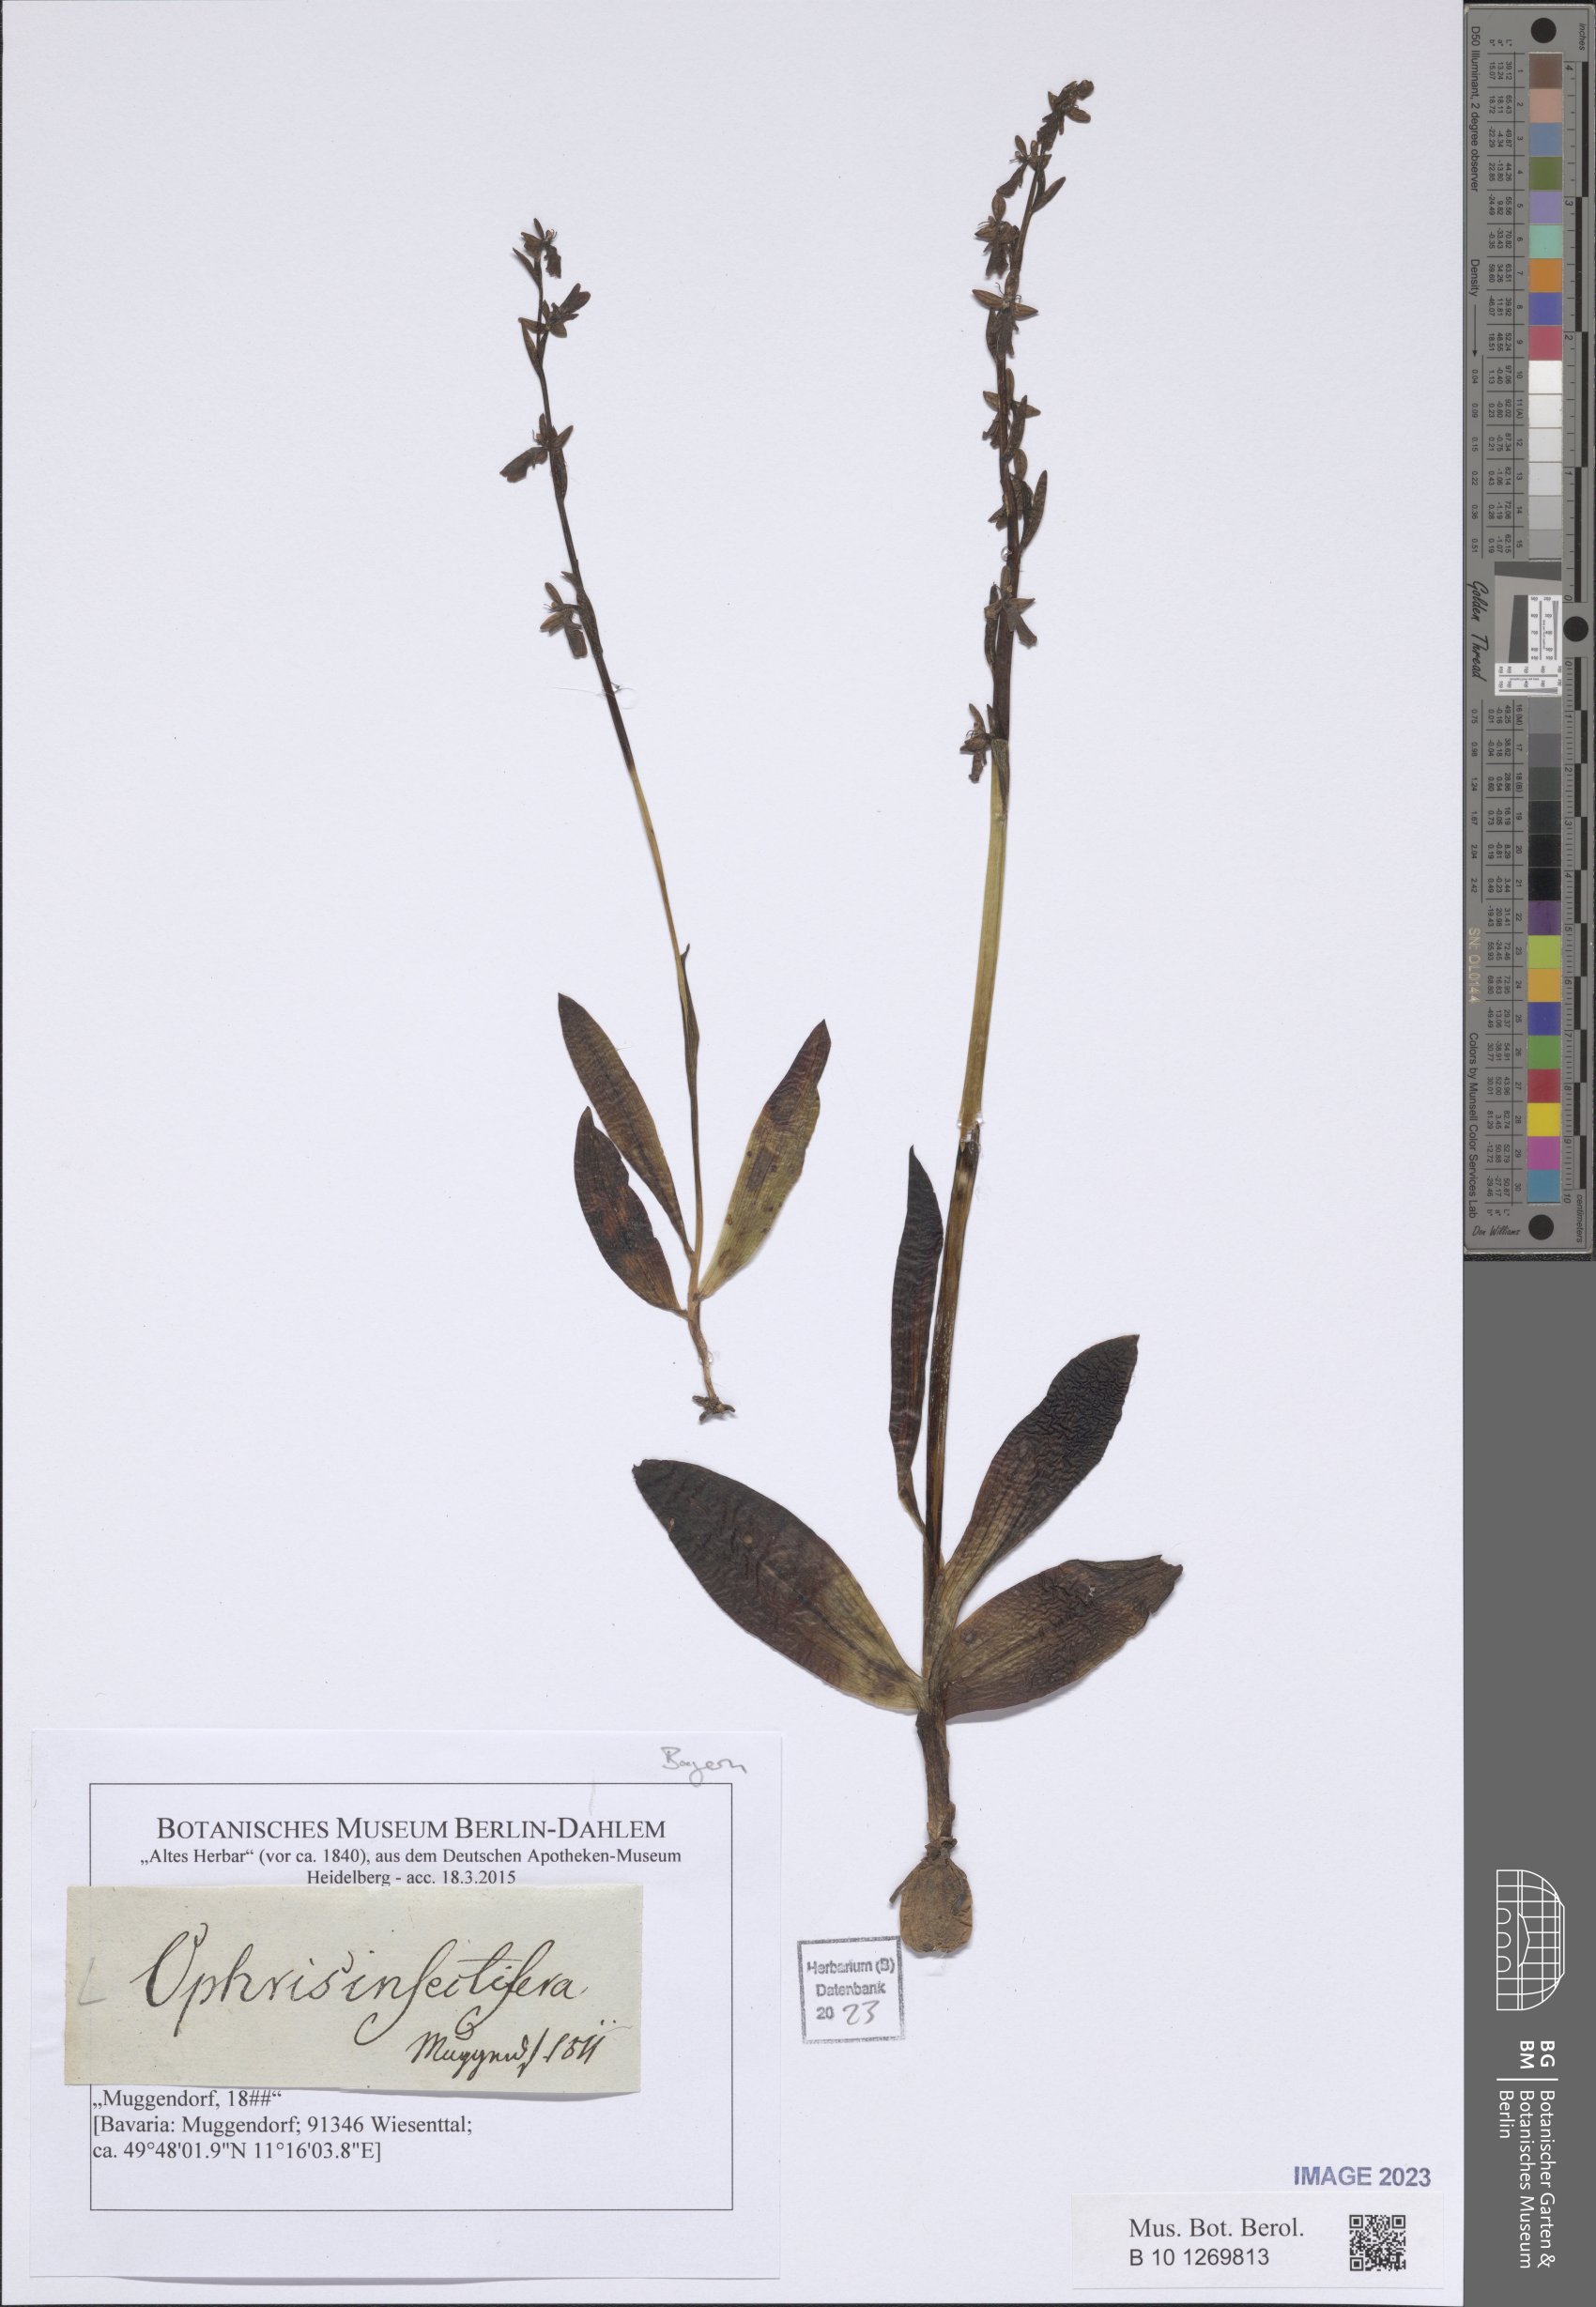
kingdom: Plantae
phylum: Tracheophyta
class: Liliopsida
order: Asparagales
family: Orchidaceae
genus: Ophrys
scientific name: Ophrys insectifera
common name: Fly orchid
